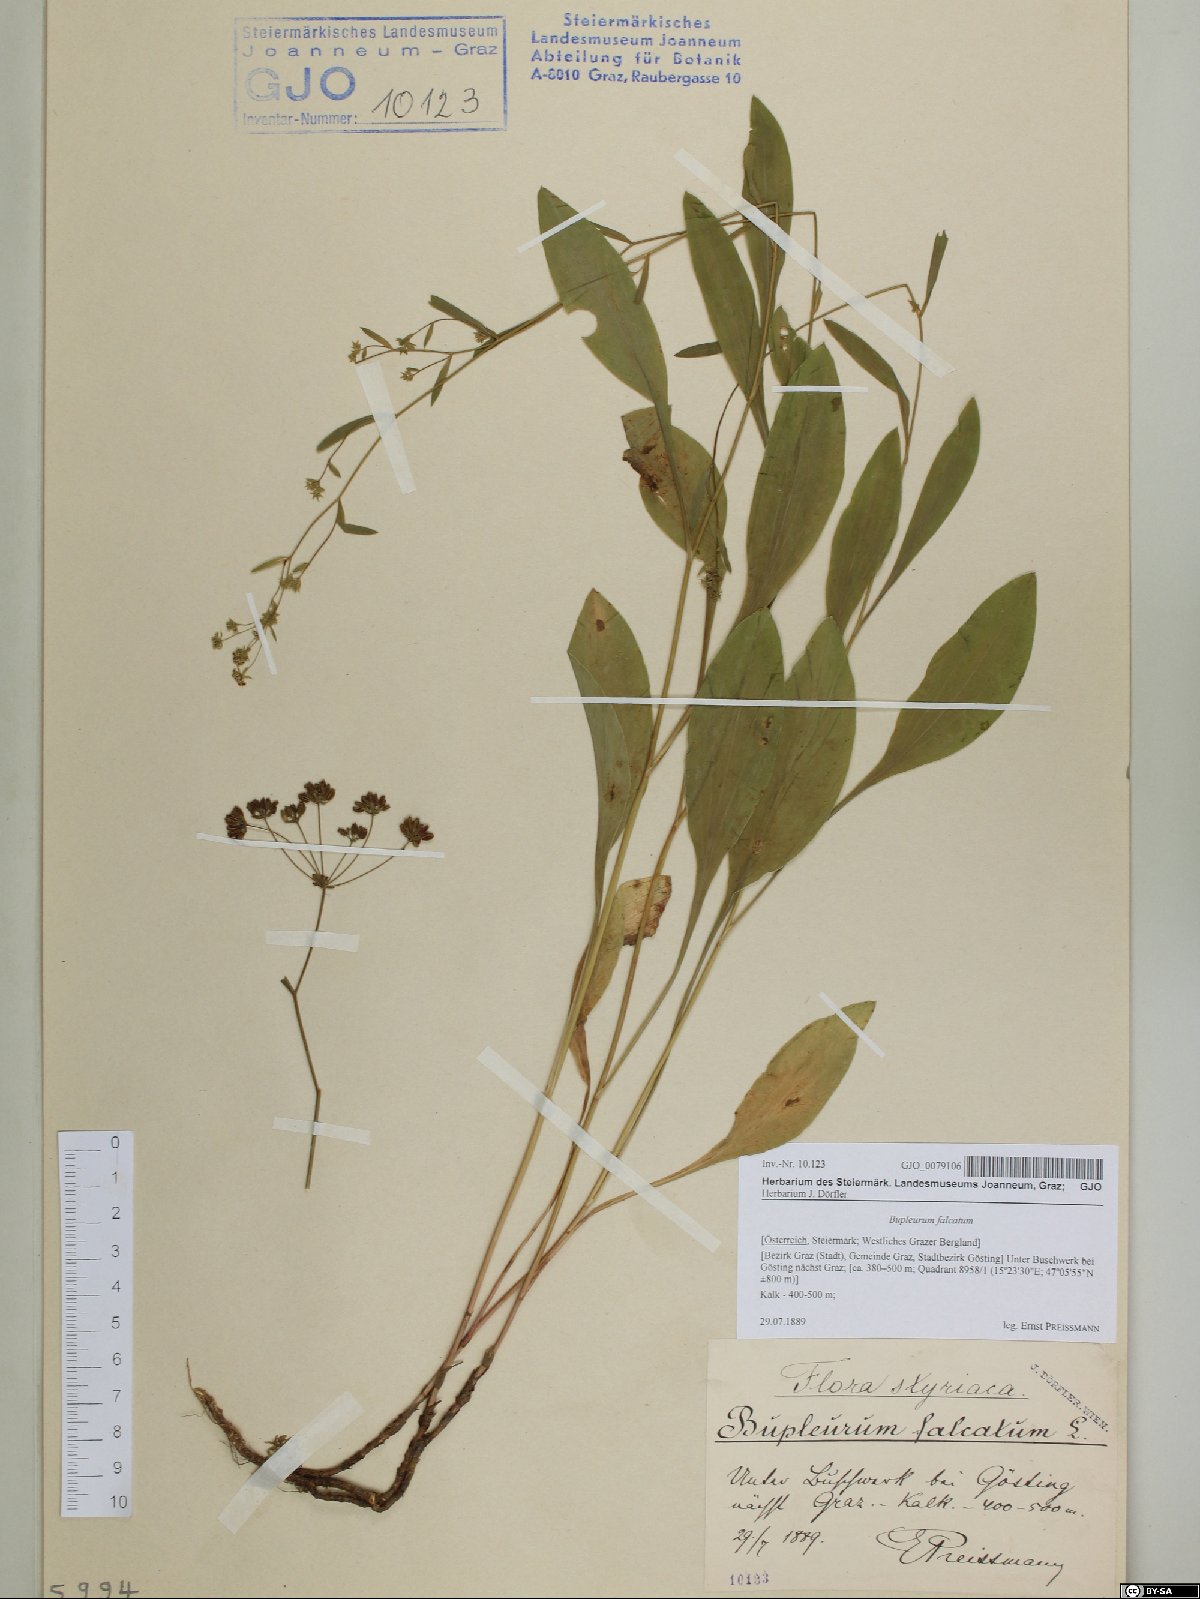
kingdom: Plantae
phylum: Tracheophyta
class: Magnoliopsida
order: Apiales
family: Apiaceae
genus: Bupleurum
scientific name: Bupleurum falcatum
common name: Sickle-leaved hare's-ear
